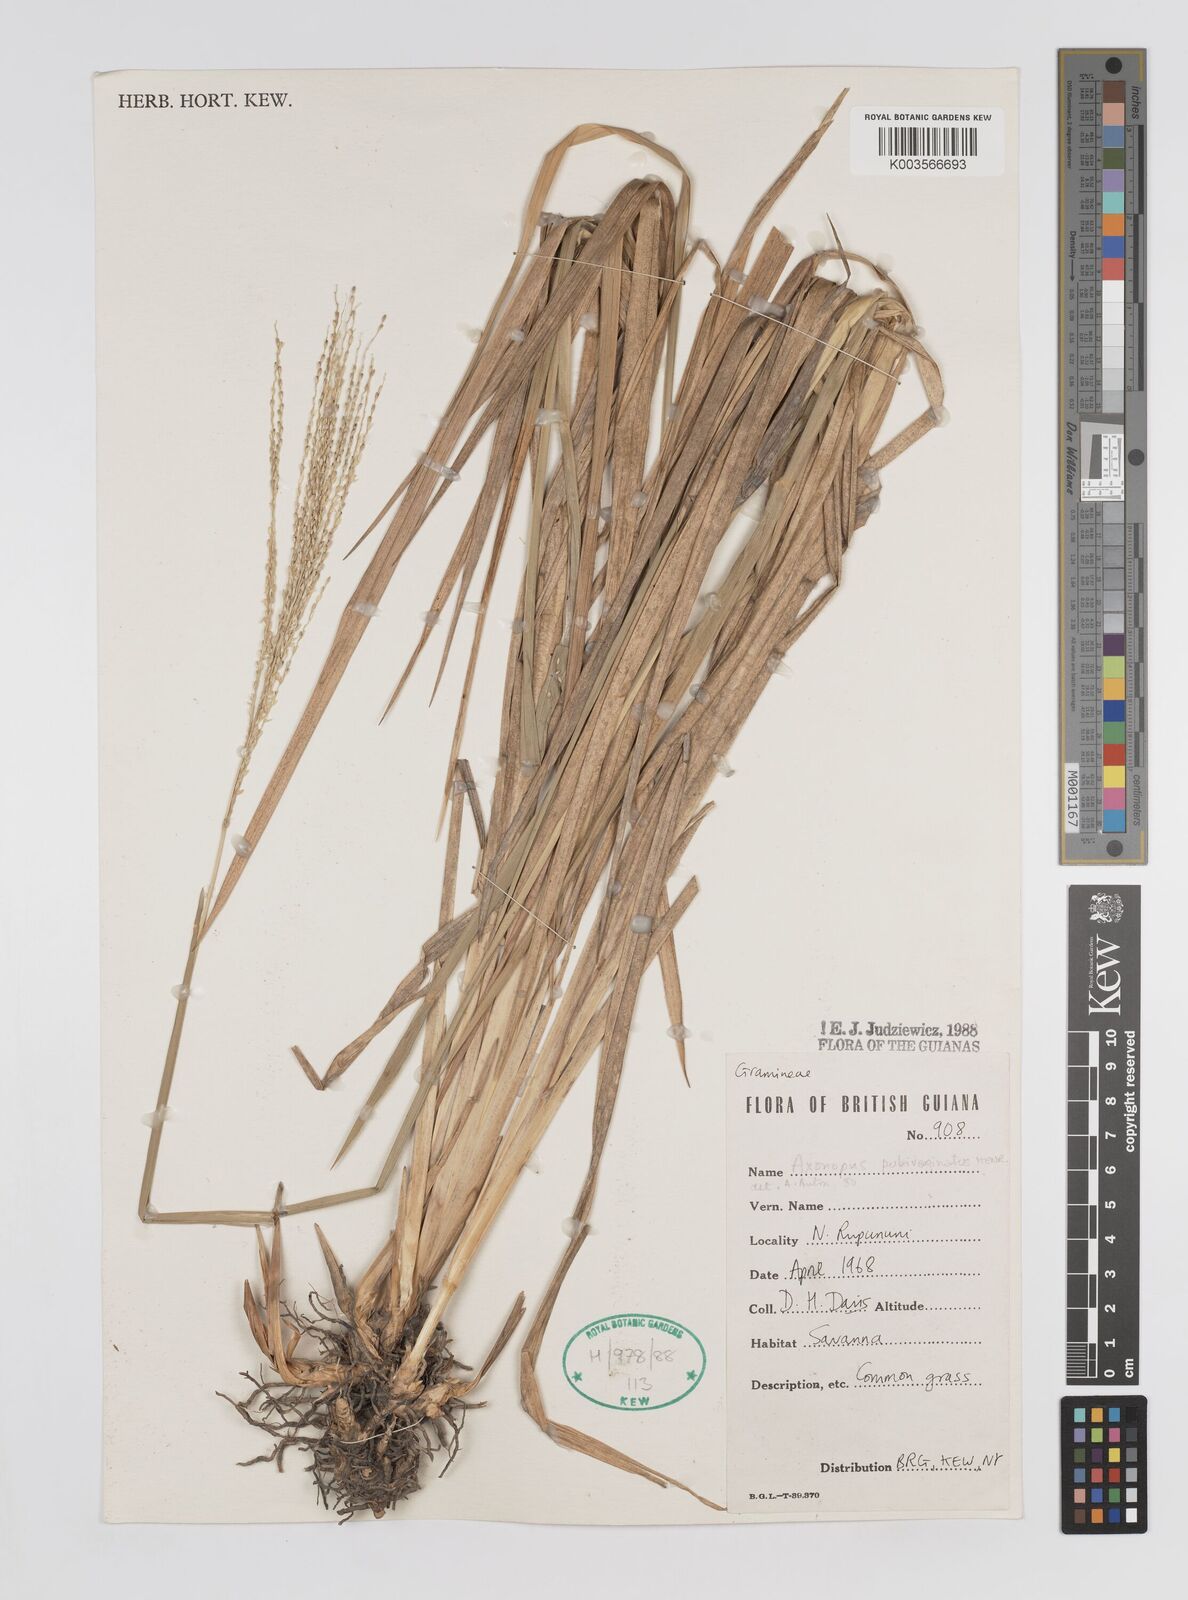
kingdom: Plantae
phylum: Tracheophyta
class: Liliopsida
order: Poales
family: Poaceae
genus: Axonopus
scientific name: Axonopus pubivaginatus
